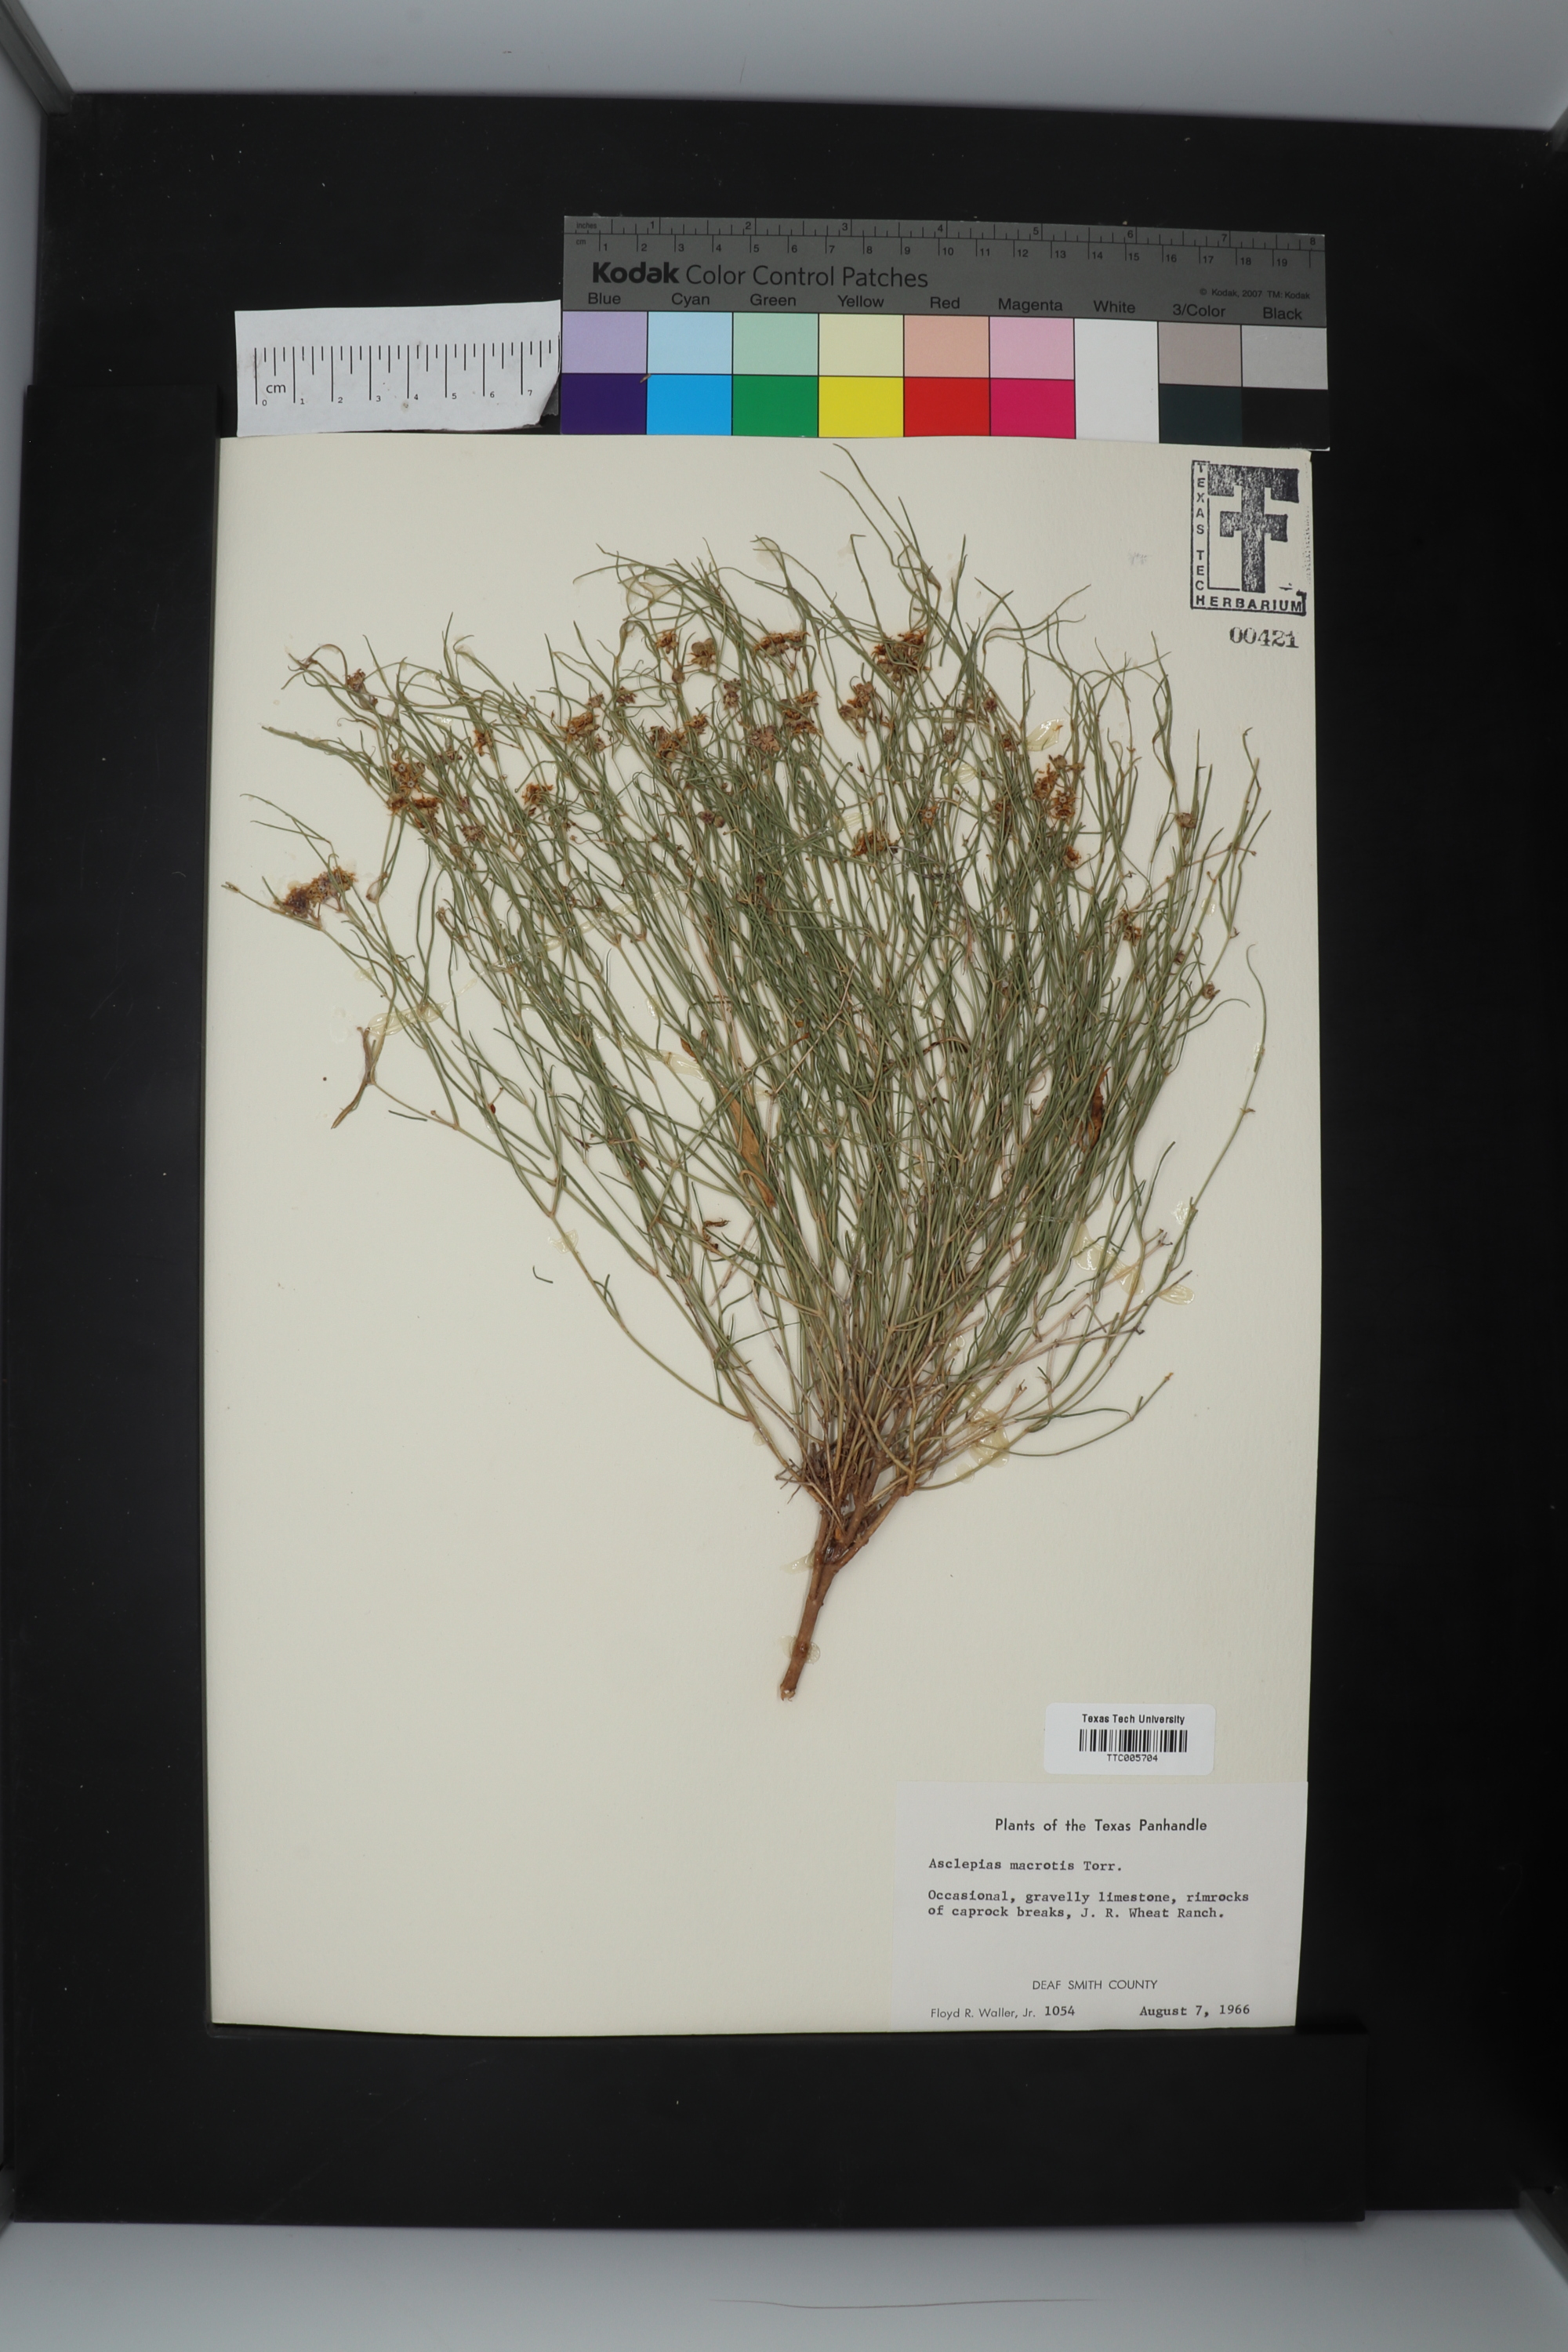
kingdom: Plantae
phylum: Tracheophyta
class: Magnoliopsida
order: Gentianales
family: Apocynaceae
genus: Asclepias
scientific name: Asclepias macrotis
